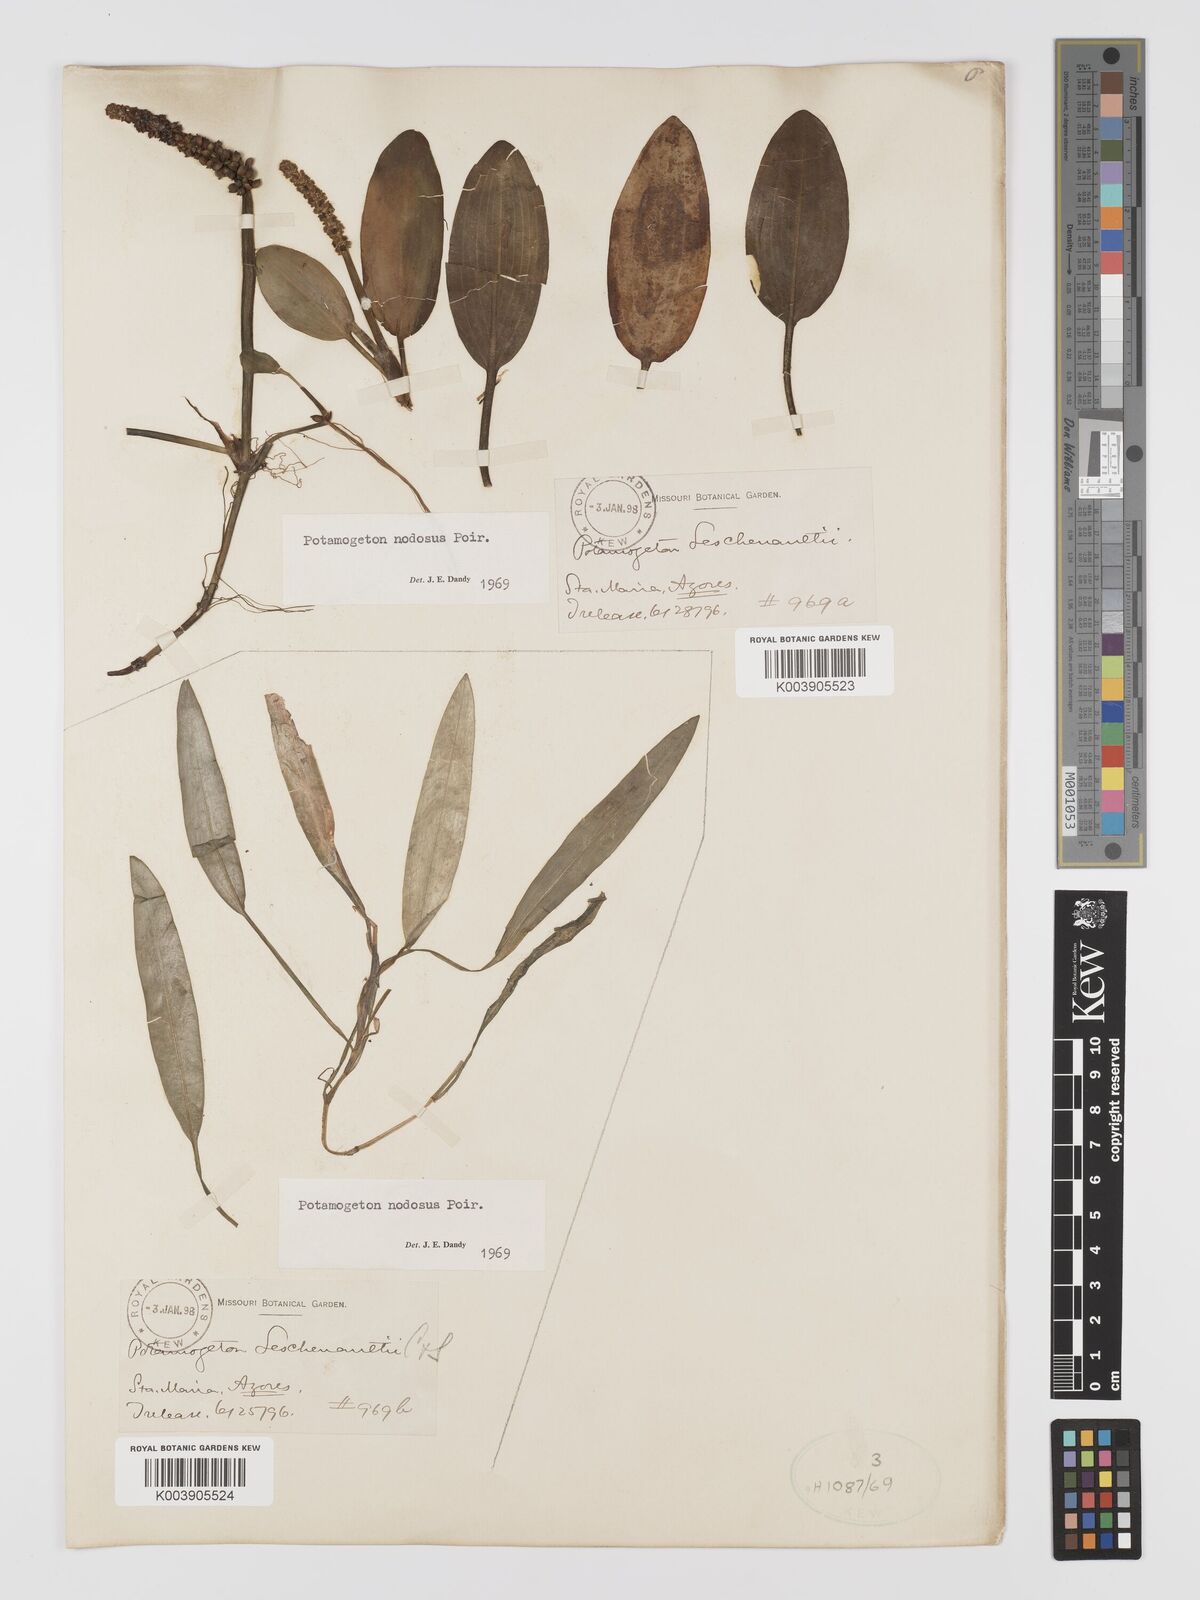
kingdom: Plantae
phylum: Tracheophyta
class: Liliopsida
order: Alismatales
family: Potamogetonaceae
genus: Potamogeton
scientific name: Potamogeton nodosus
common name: Loddon pondweed
